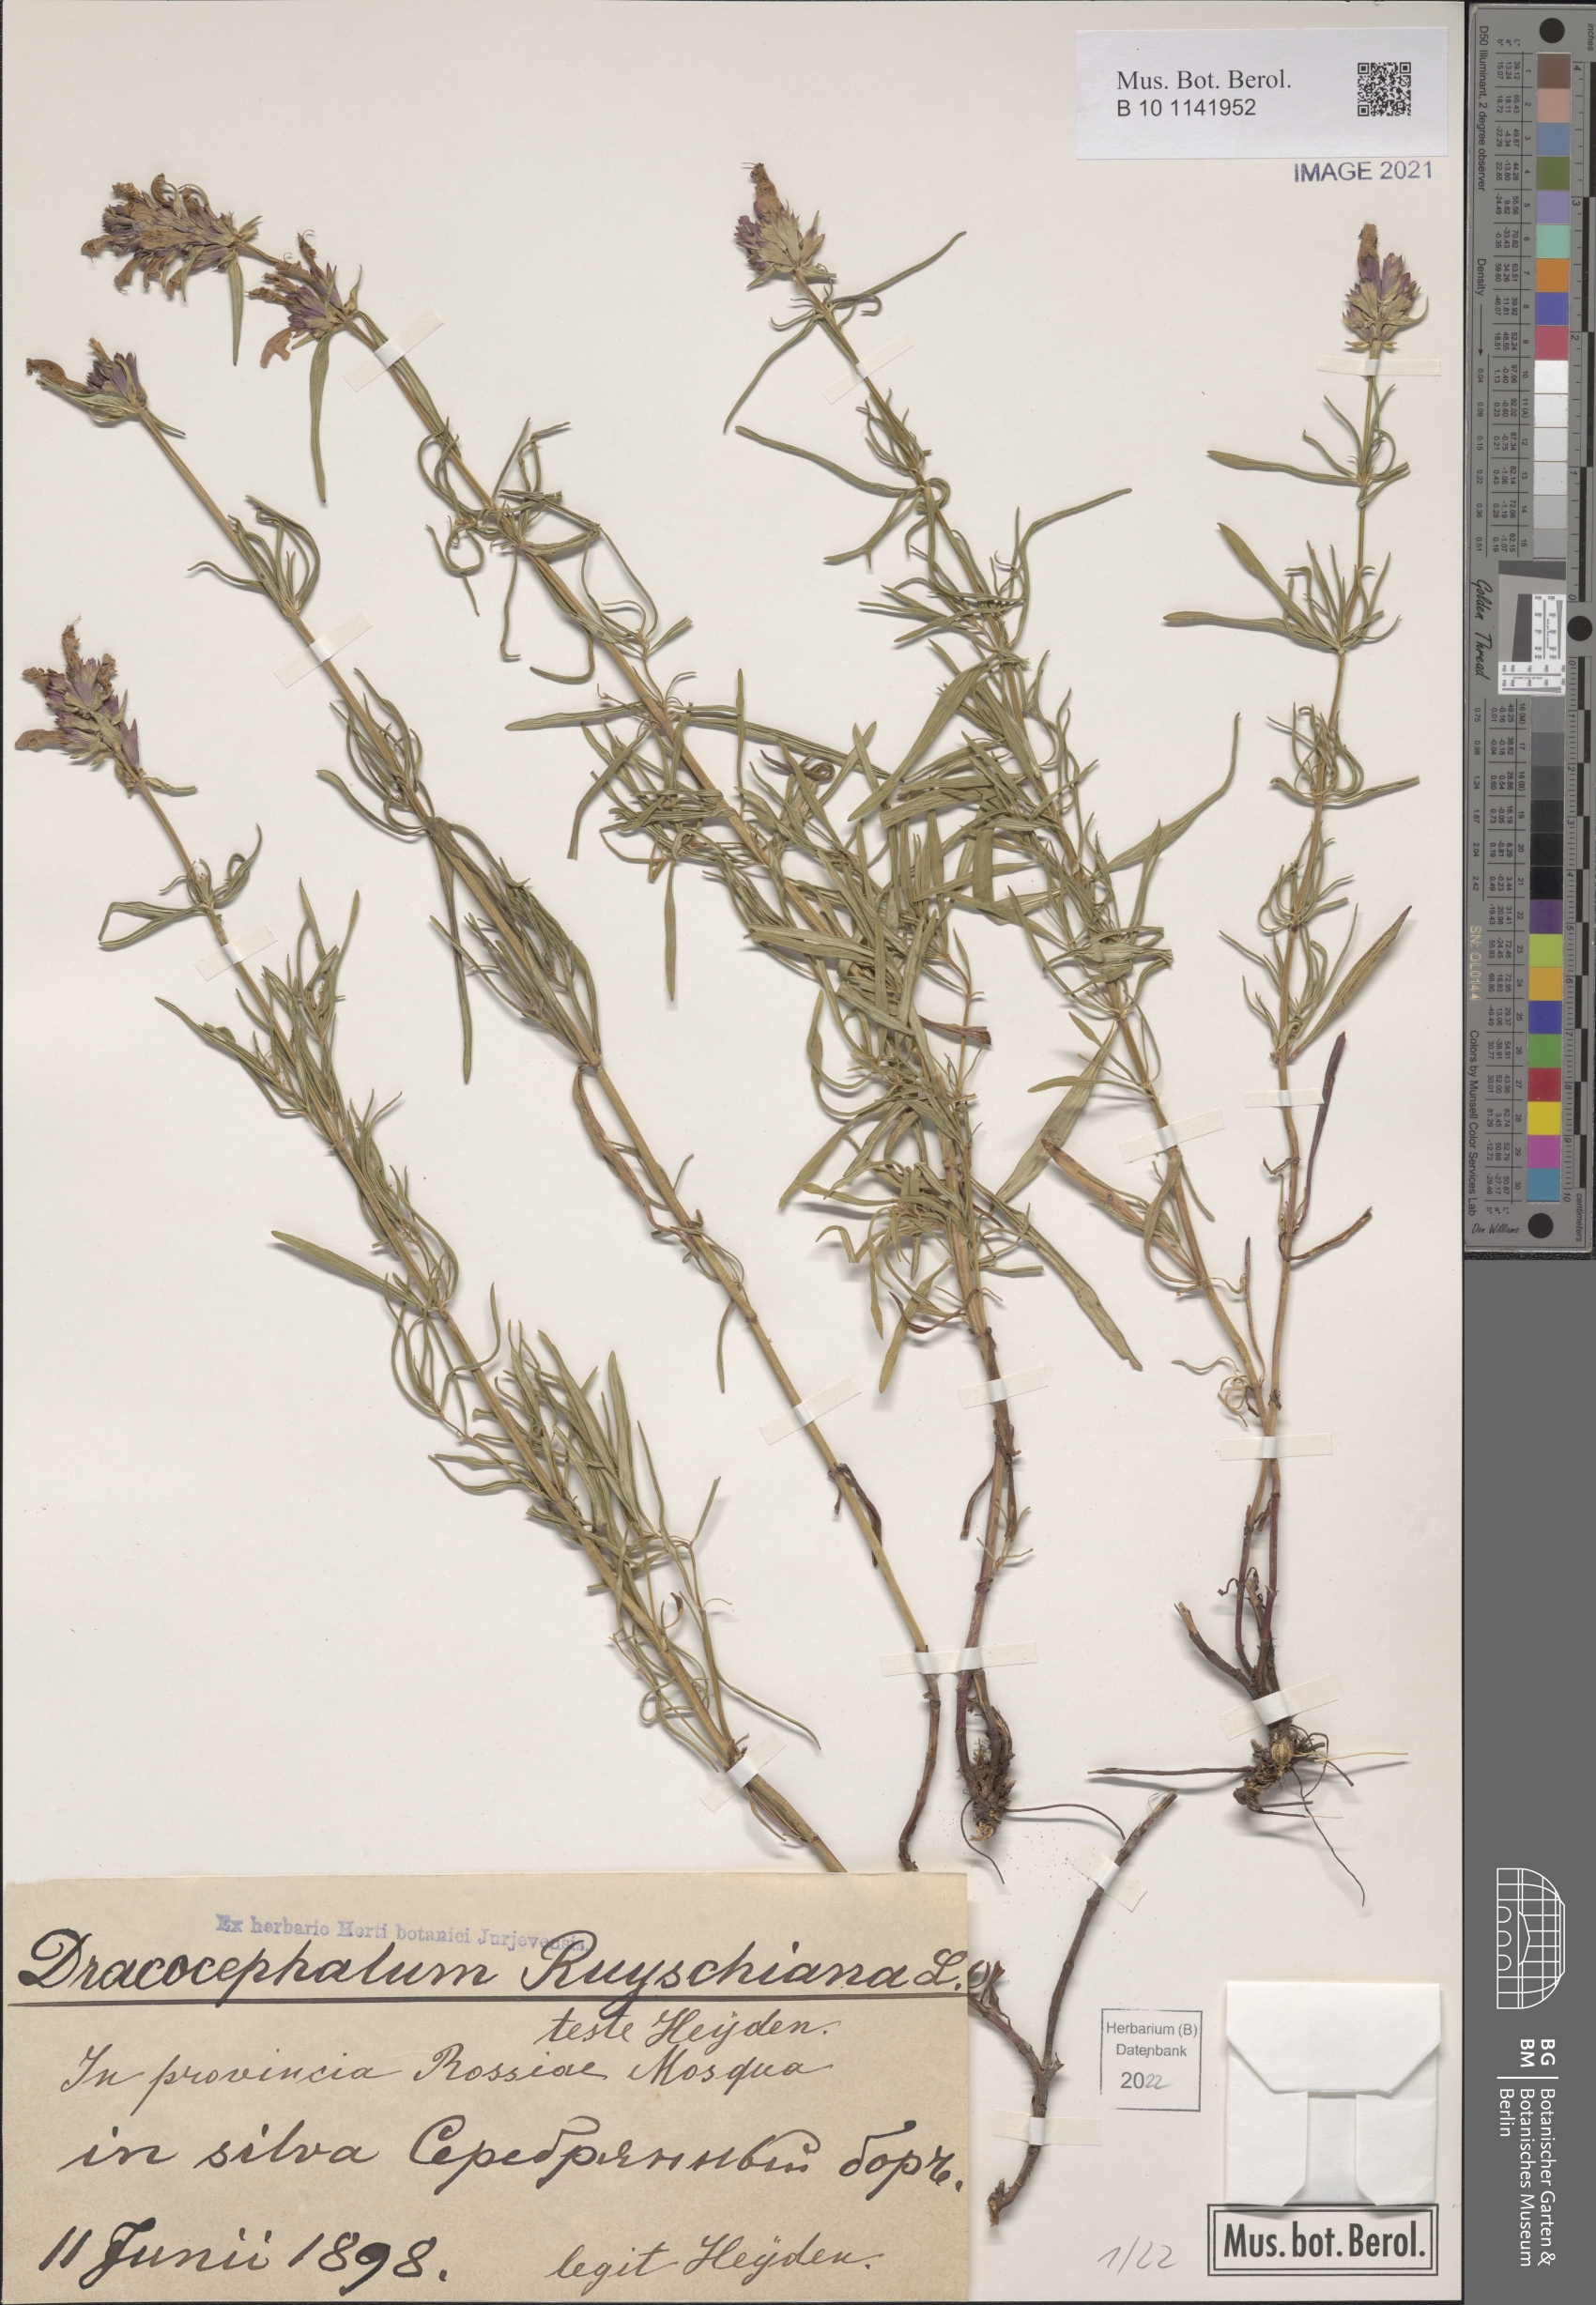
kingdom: Plantae
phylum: Tracheophyta
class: Magnoliopsida
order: Lamiales
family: Lamiaceae
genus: Dracocephalum
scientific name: Dracocephalum ruyschiana
